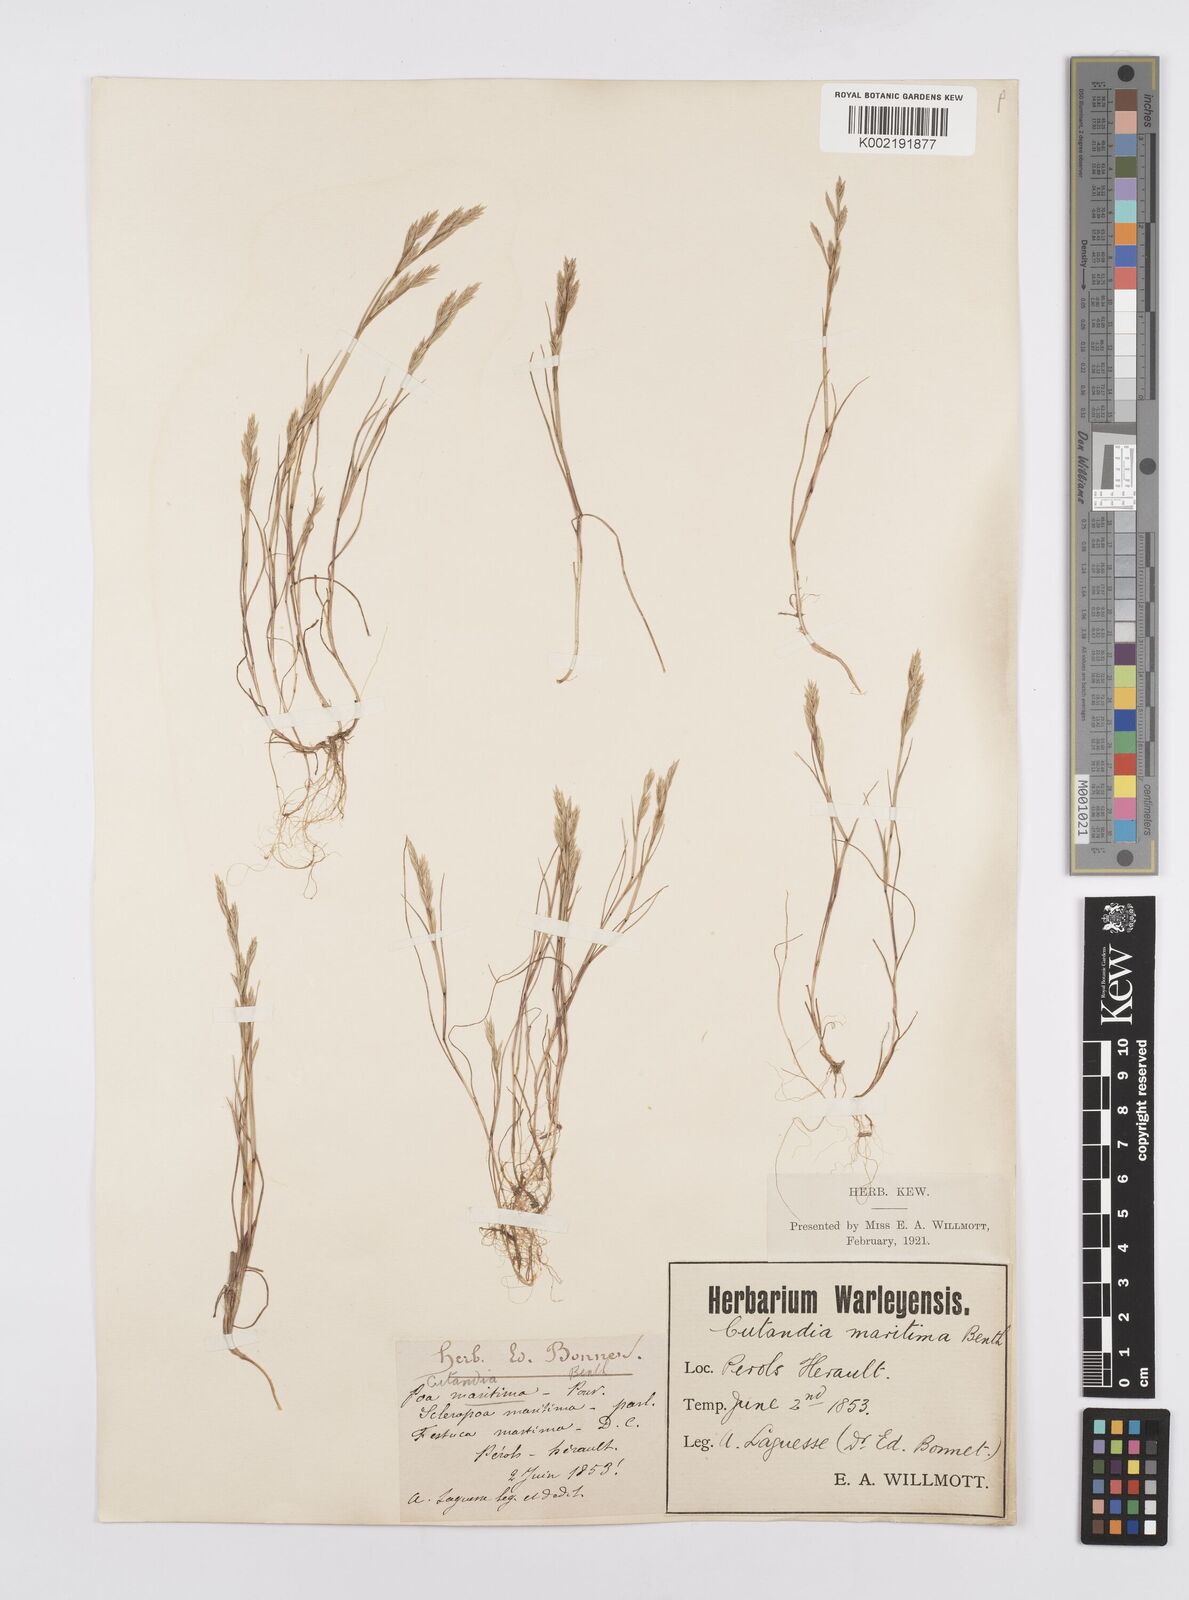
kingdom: Plantae
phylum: Tracheophyta
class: Liliopsida
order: Poales
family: Poaceae
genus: Cutandia
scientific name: Cutandia maritima
